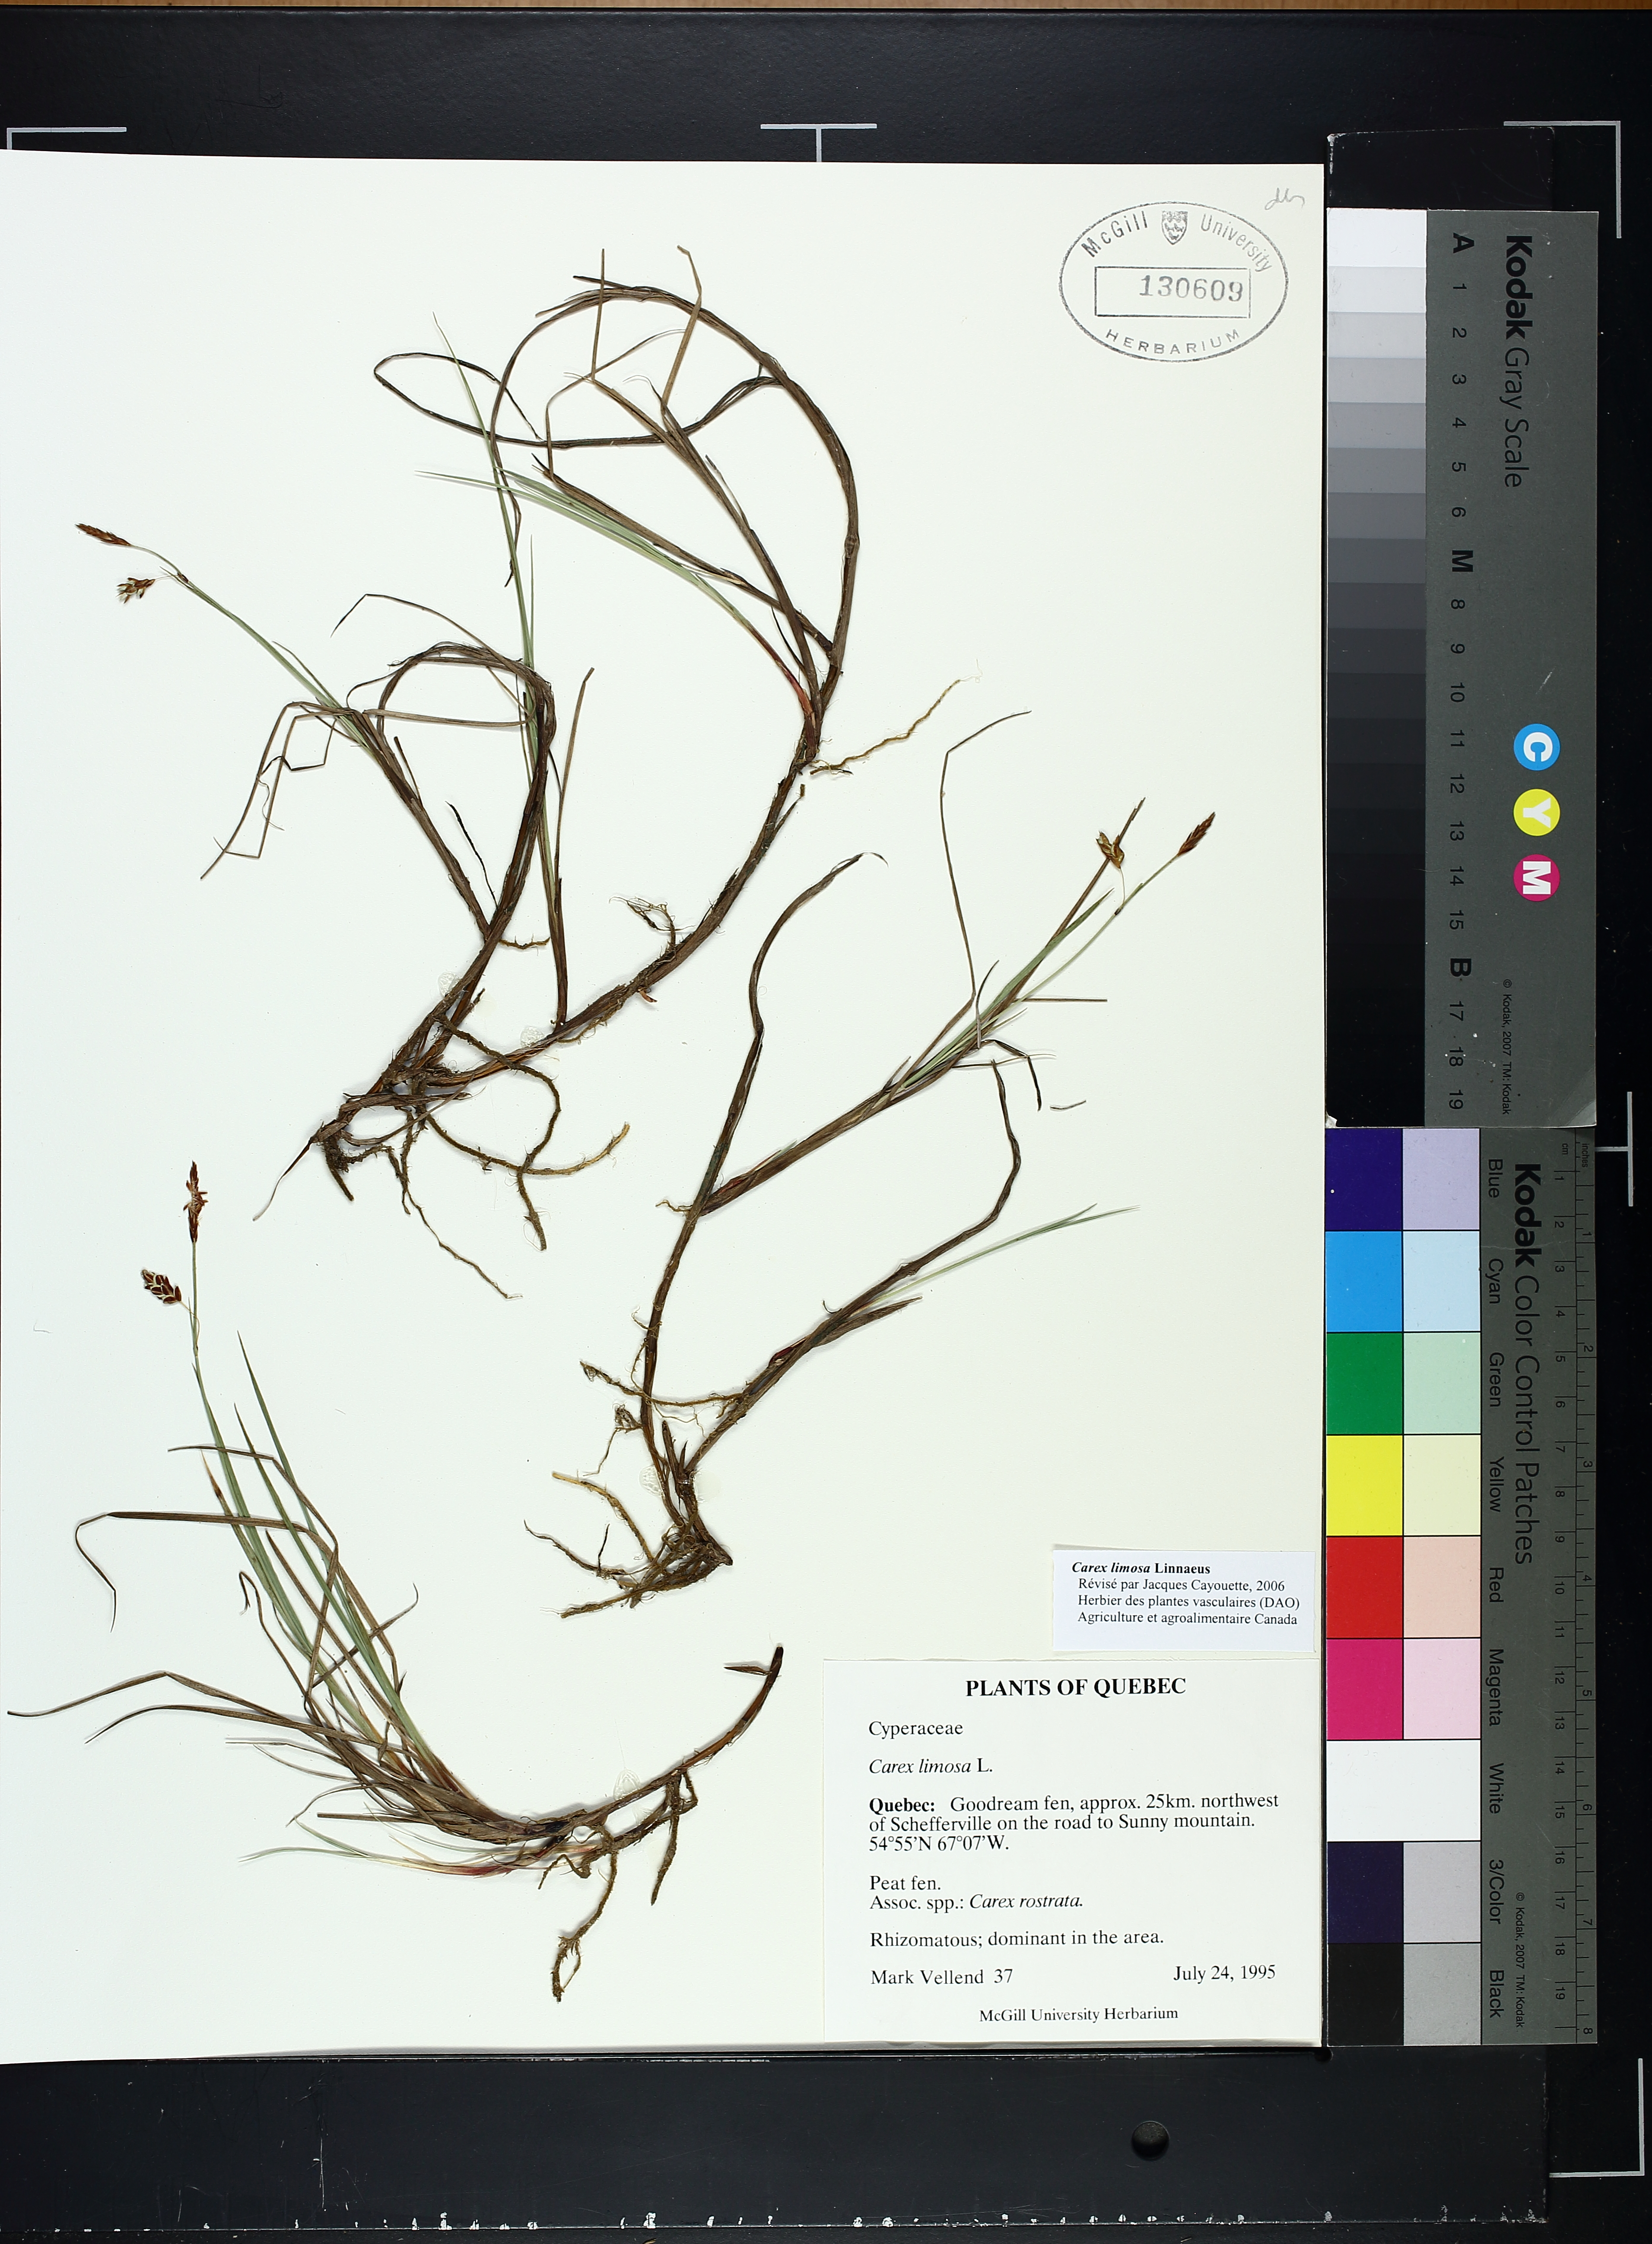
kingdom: Plantae
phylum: Tracheophyta
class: Liliopsida
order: Poales
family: Cyperaceae
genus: Carex
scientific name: Carex limosa
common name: Bog sedge
